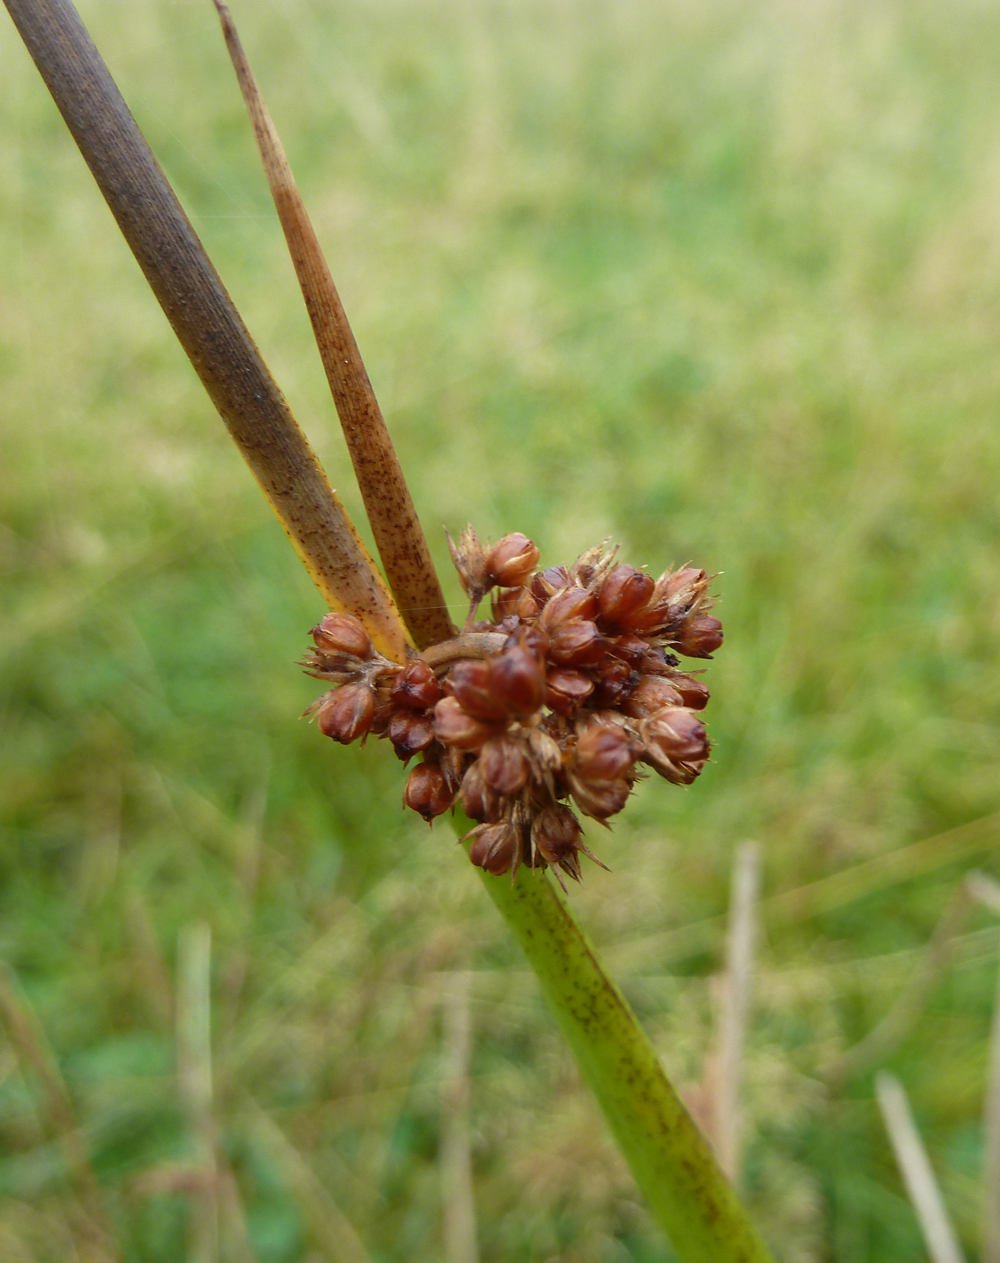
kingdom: Plantae
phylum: Tracheophyta
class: Liliopsida
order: Poales
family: Juncaceae
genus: Juncus
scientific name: Juncus effusus
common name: Soft rush
